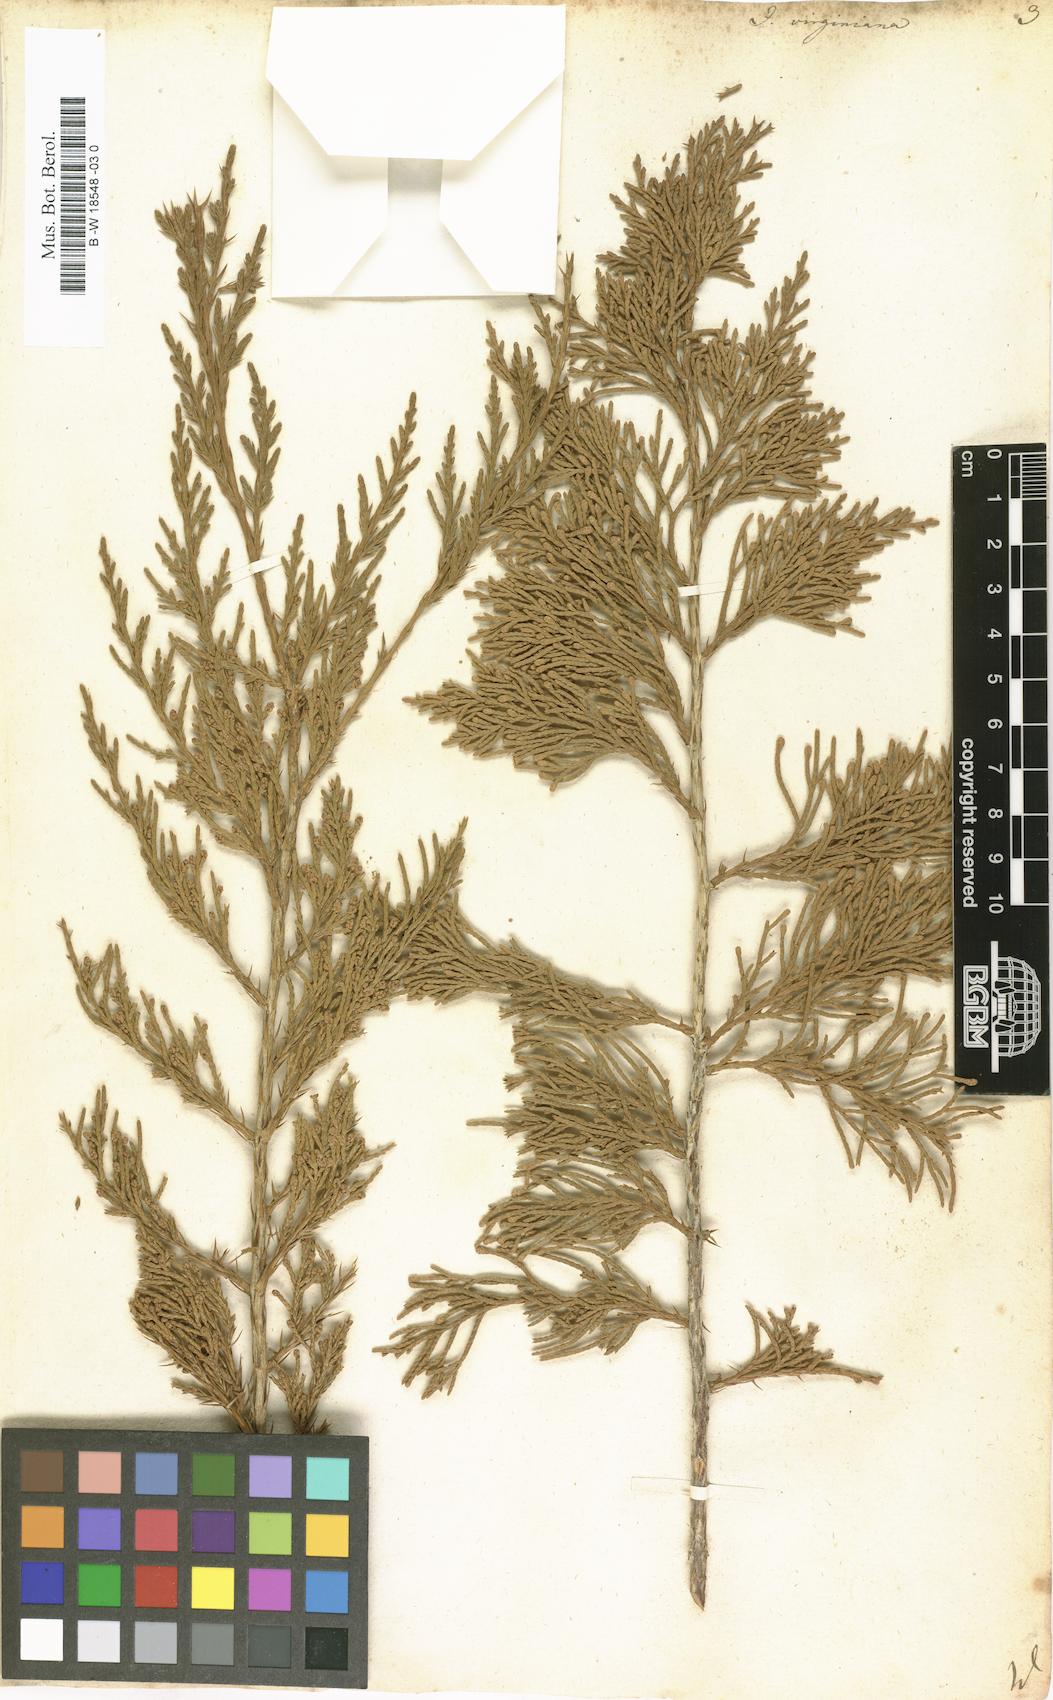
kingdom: Plantae
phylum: Tracheophyta
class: Pinopsida
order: Pinales
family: Cupressaceae
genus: Juniperus
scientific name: Juniperus virginiana
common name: Red juniper
